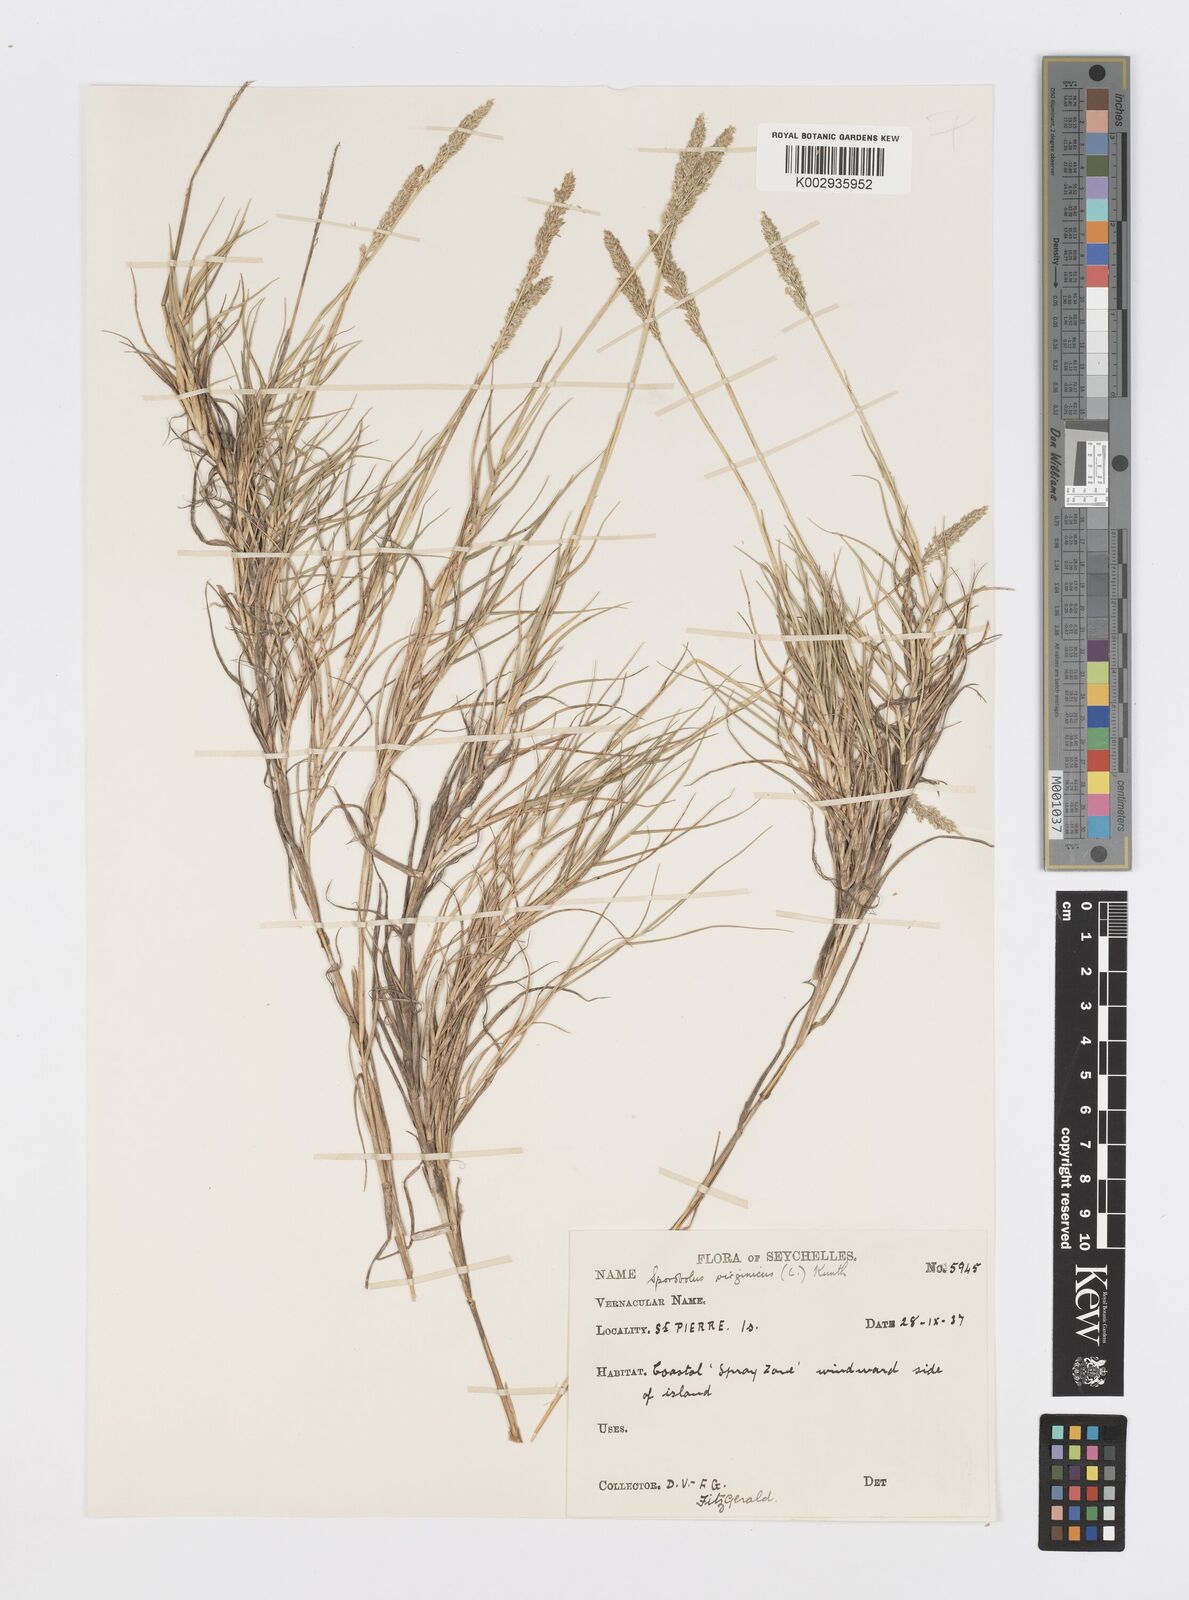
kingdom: Plantae
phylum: Tracheophyta
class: Liliopsida
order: Poales
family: Poaceae
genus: Sporobolus
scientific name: Sporobolus virginicus
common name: Beach dropseed
